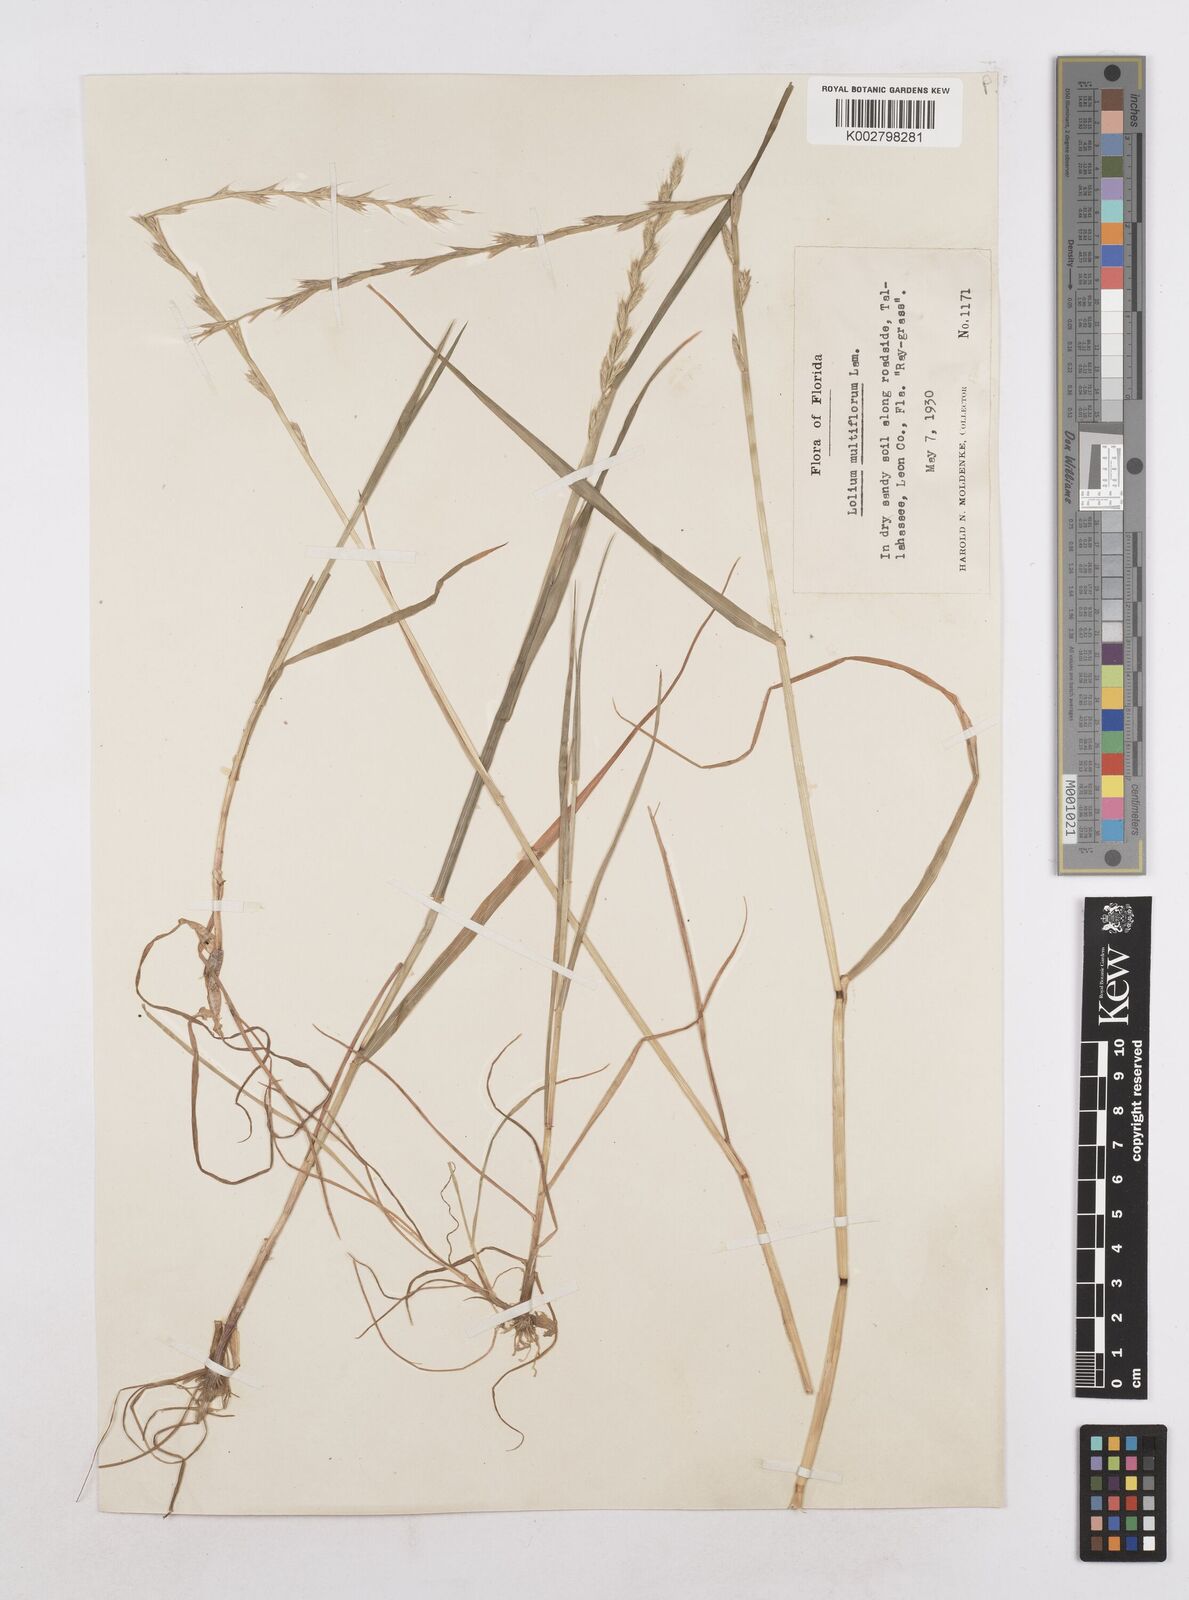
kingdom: Plantae
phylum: Tracheophyta
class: Liliopsida
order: Poales
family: Poaceae
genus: Lolium
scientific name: Lolium multiflorum
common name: Annual ryegrass
